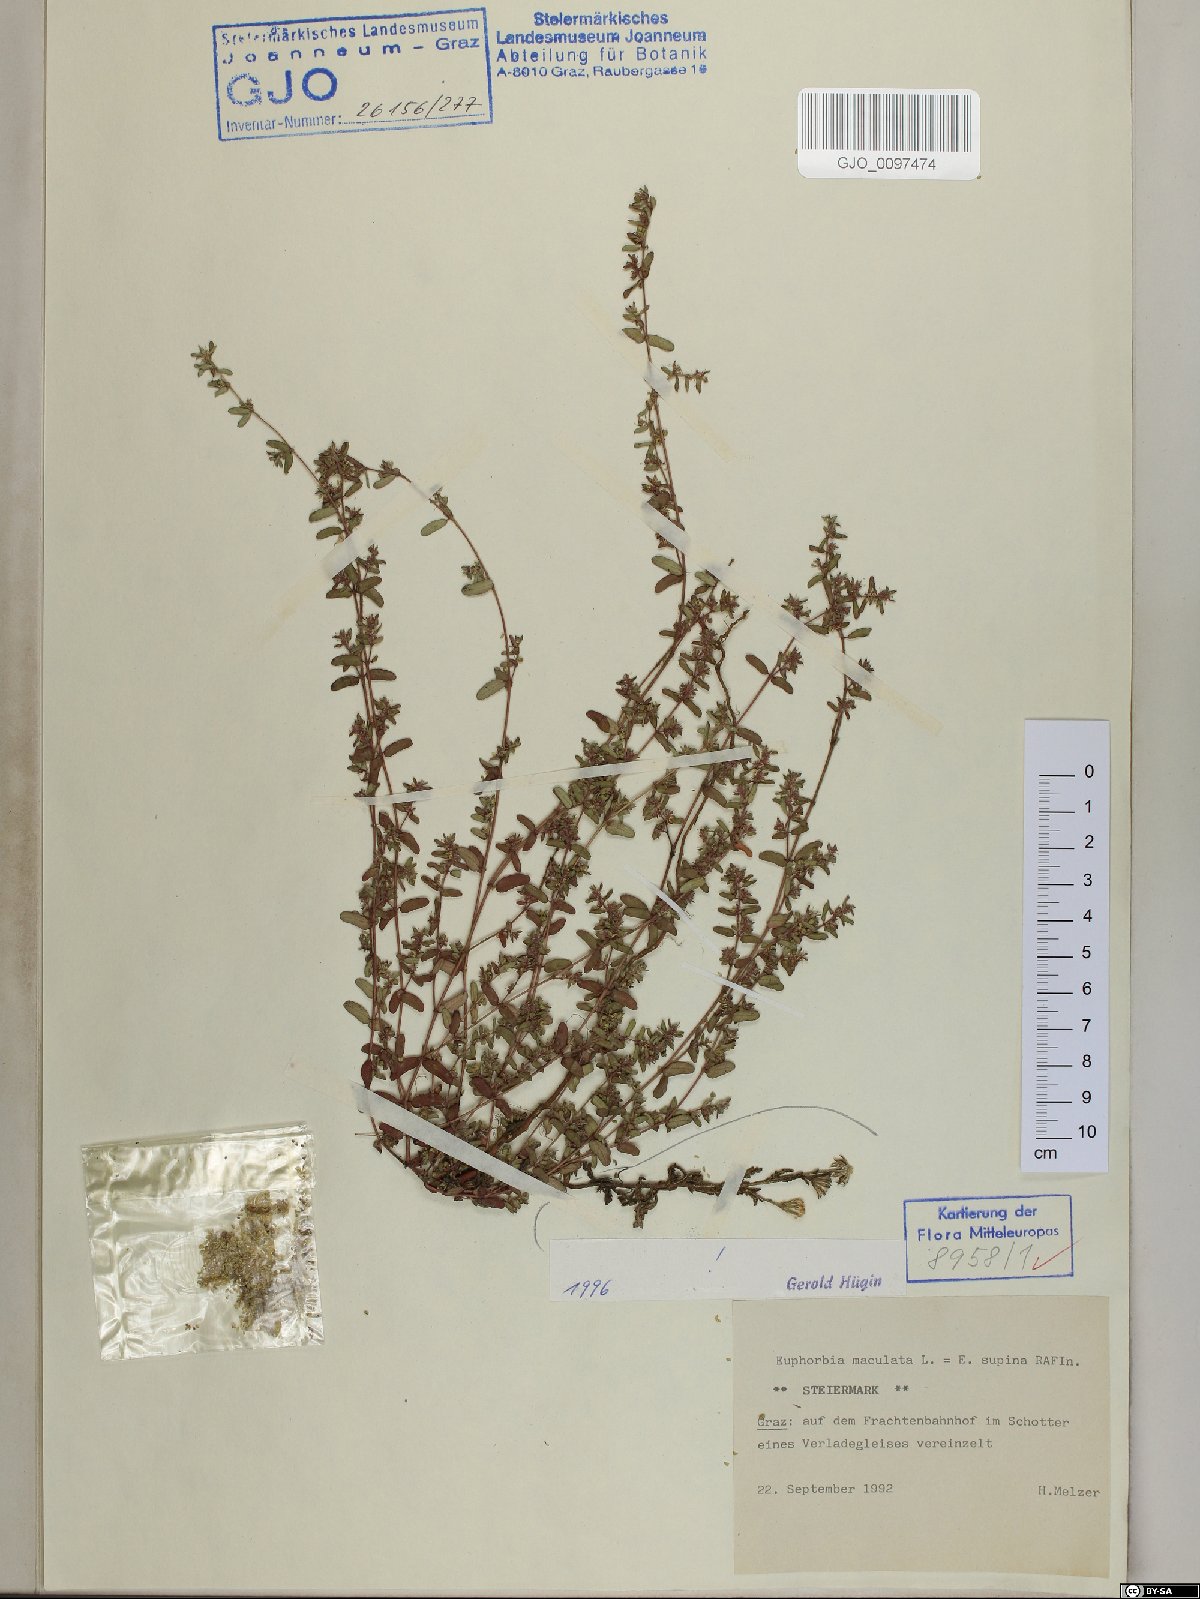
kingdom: Plantae
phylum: Tracheophyta
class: Magnoliopsida
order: Malpighiales
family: Euphorbiaceae
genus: Euphorbia
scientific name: Euphorbia maculata
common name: Spotted spurge
